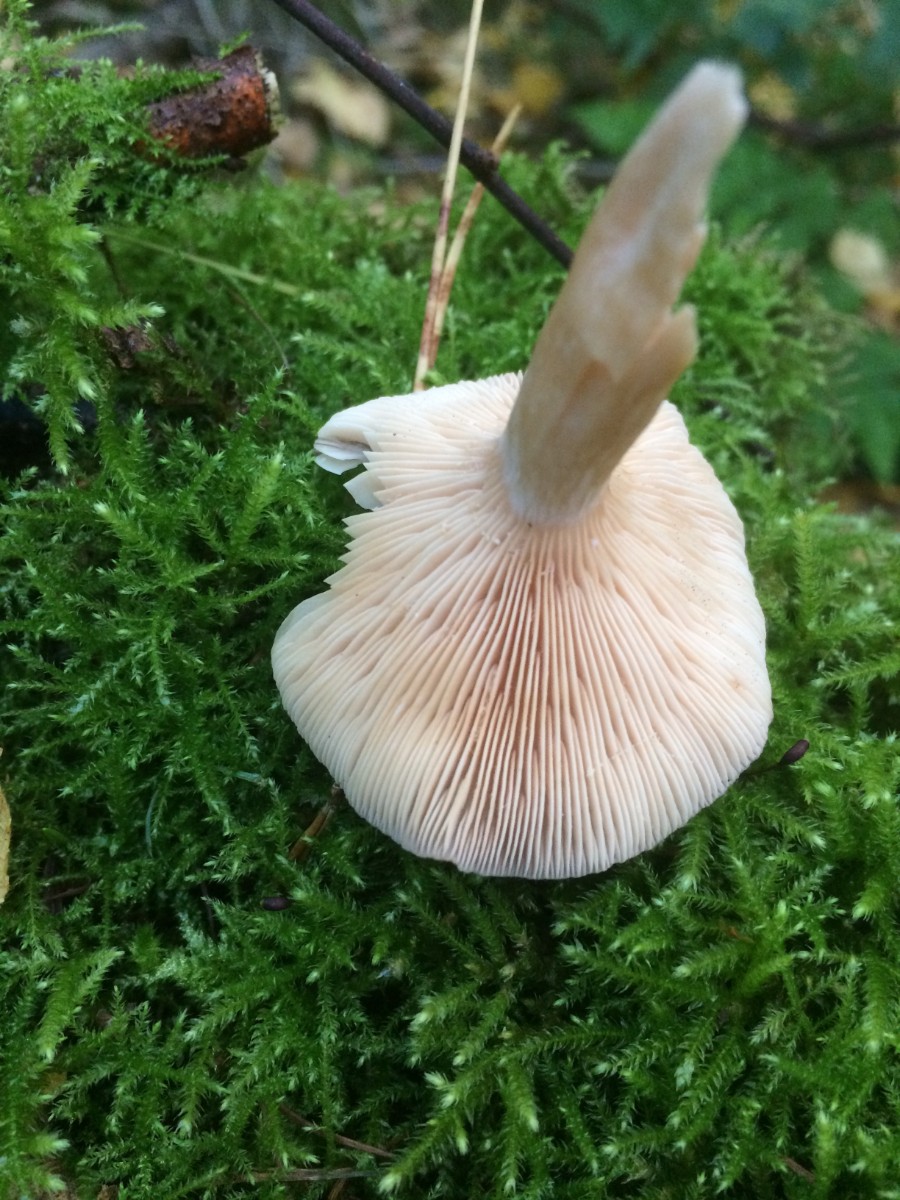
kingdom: Fungi
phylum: Basidiomycota
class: Agaricomycetes
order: Russulales
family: Russulaceae
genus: Lactarius
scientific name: Lactarius glyciosmus
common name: kokos-mælkehat
